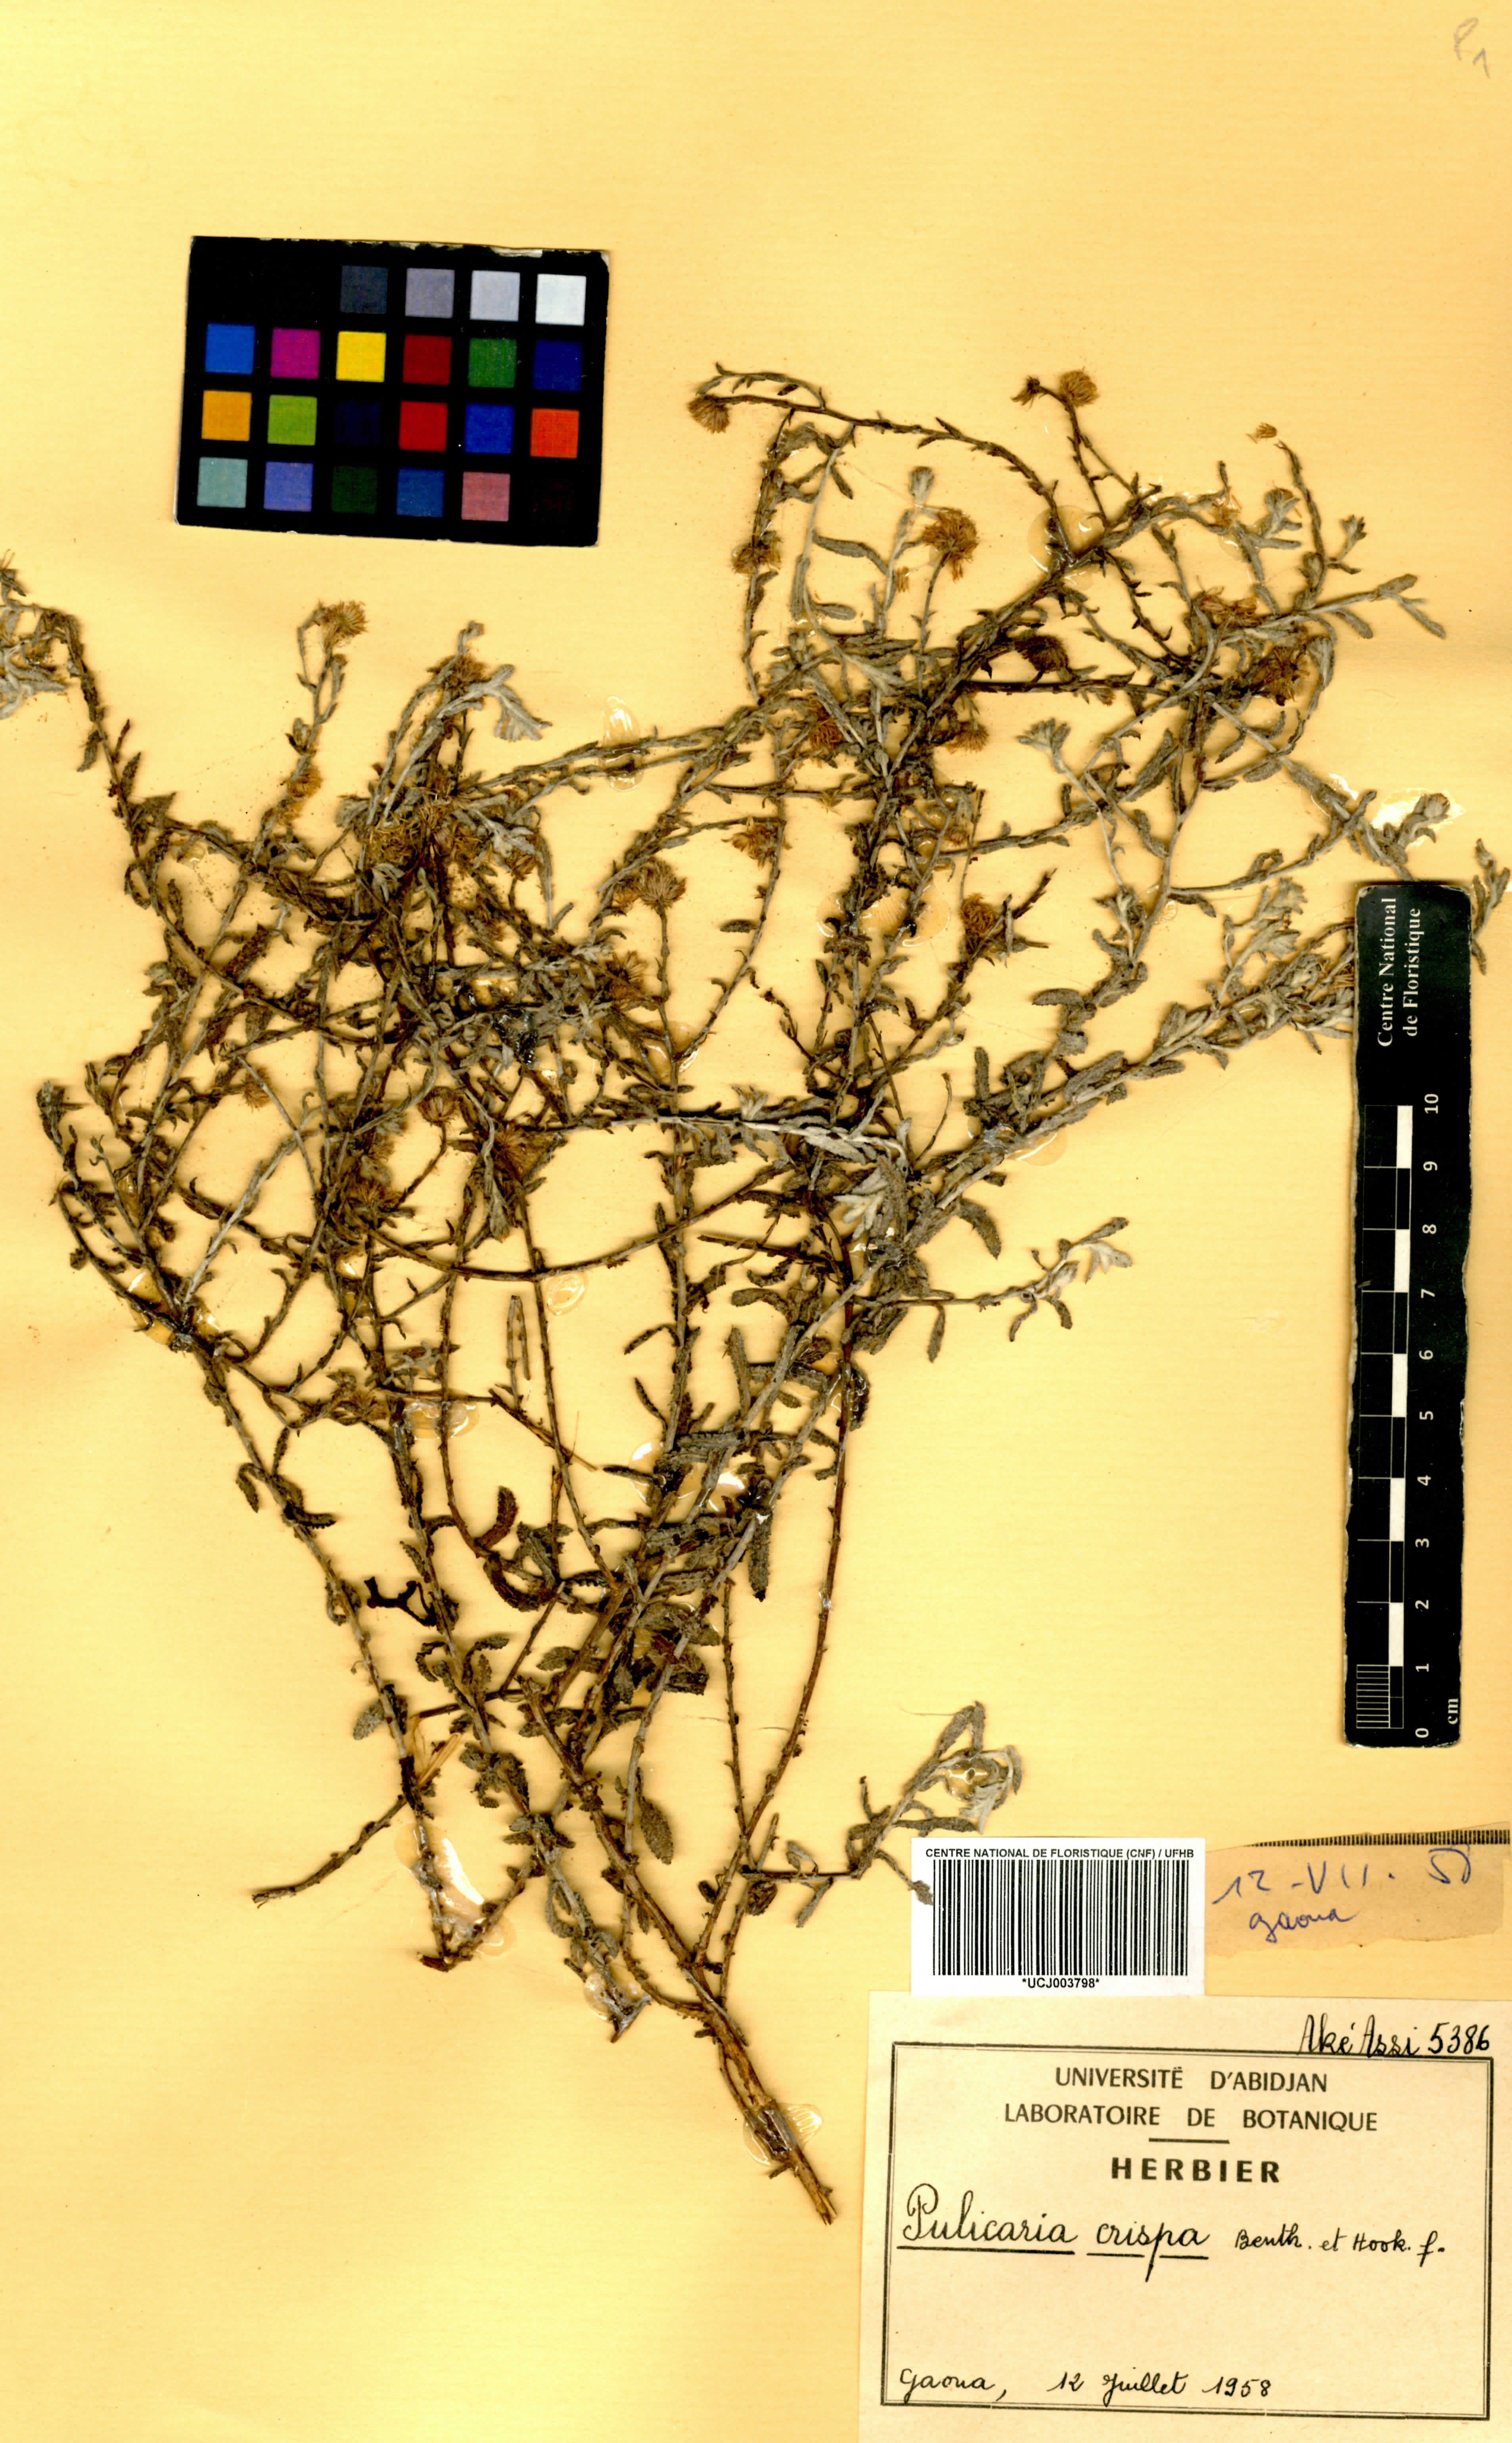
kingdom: Plantae
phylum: Tracheophyta
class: Magnoliopsida
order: Asterales
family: Asteraceae
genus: Pulicaria
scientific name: Pulicaria crispa
